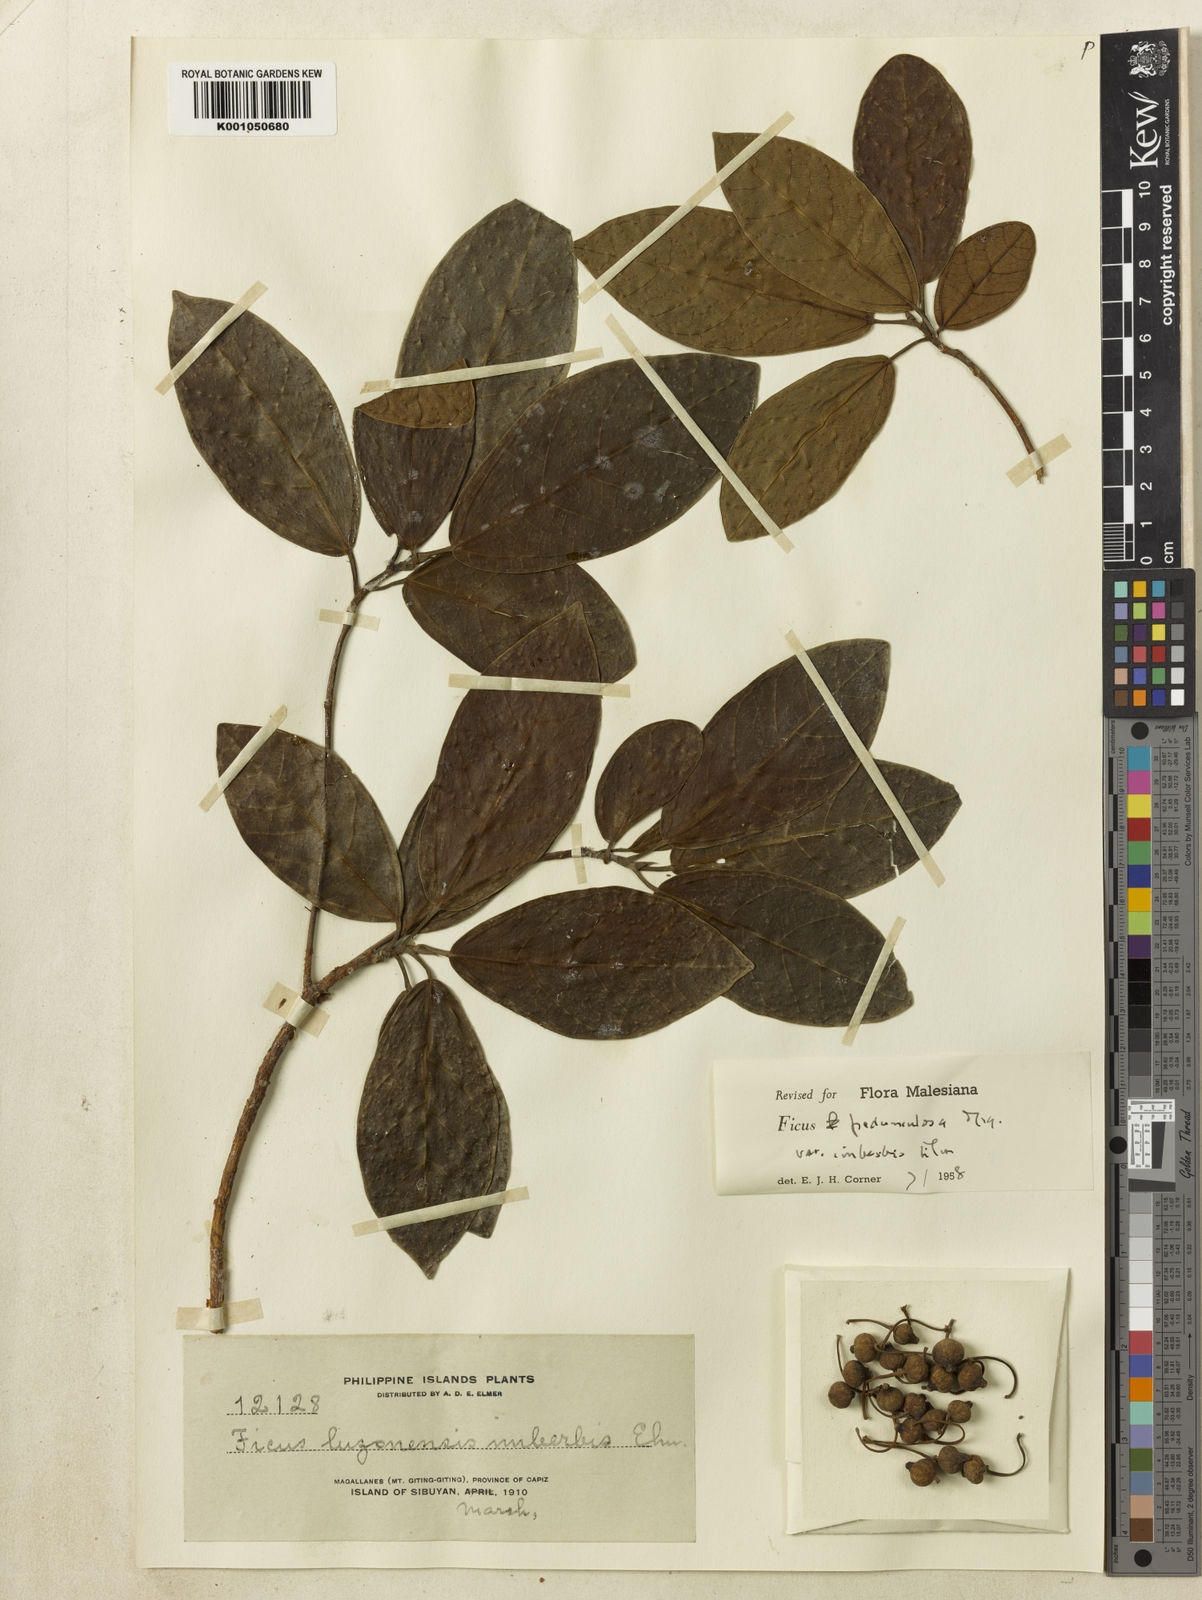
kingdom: Plantae
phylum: Tracheophyta
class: Magnoliopsida
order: Rosales
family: Moraceae
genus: Ficus
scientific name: Ficus pedunculosa
